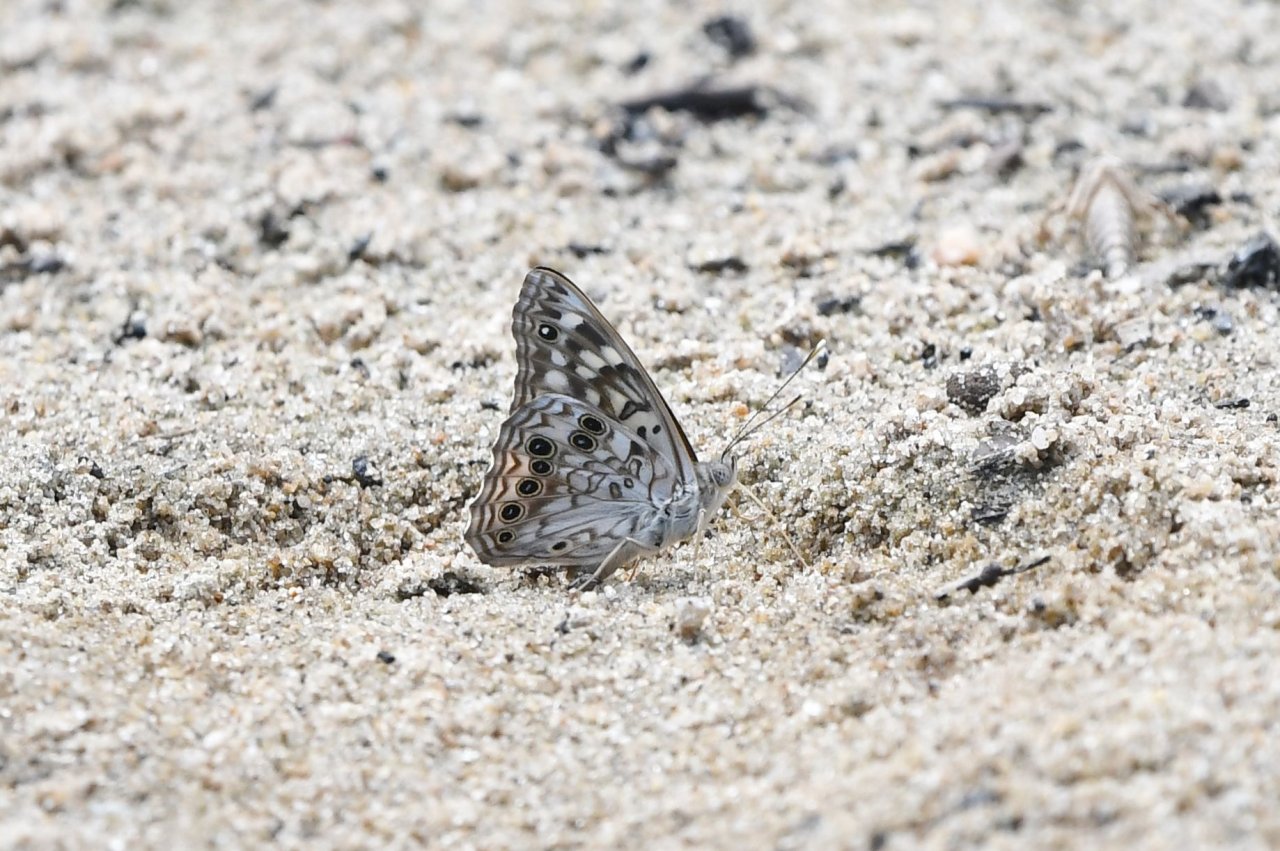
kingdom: Animalia
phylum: Arthropoda
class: Insecta
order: Lepidoptera
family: Nymphalidae
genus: Asterocampa
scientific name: Asterocampa celtis
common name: Hackberry Emperor
